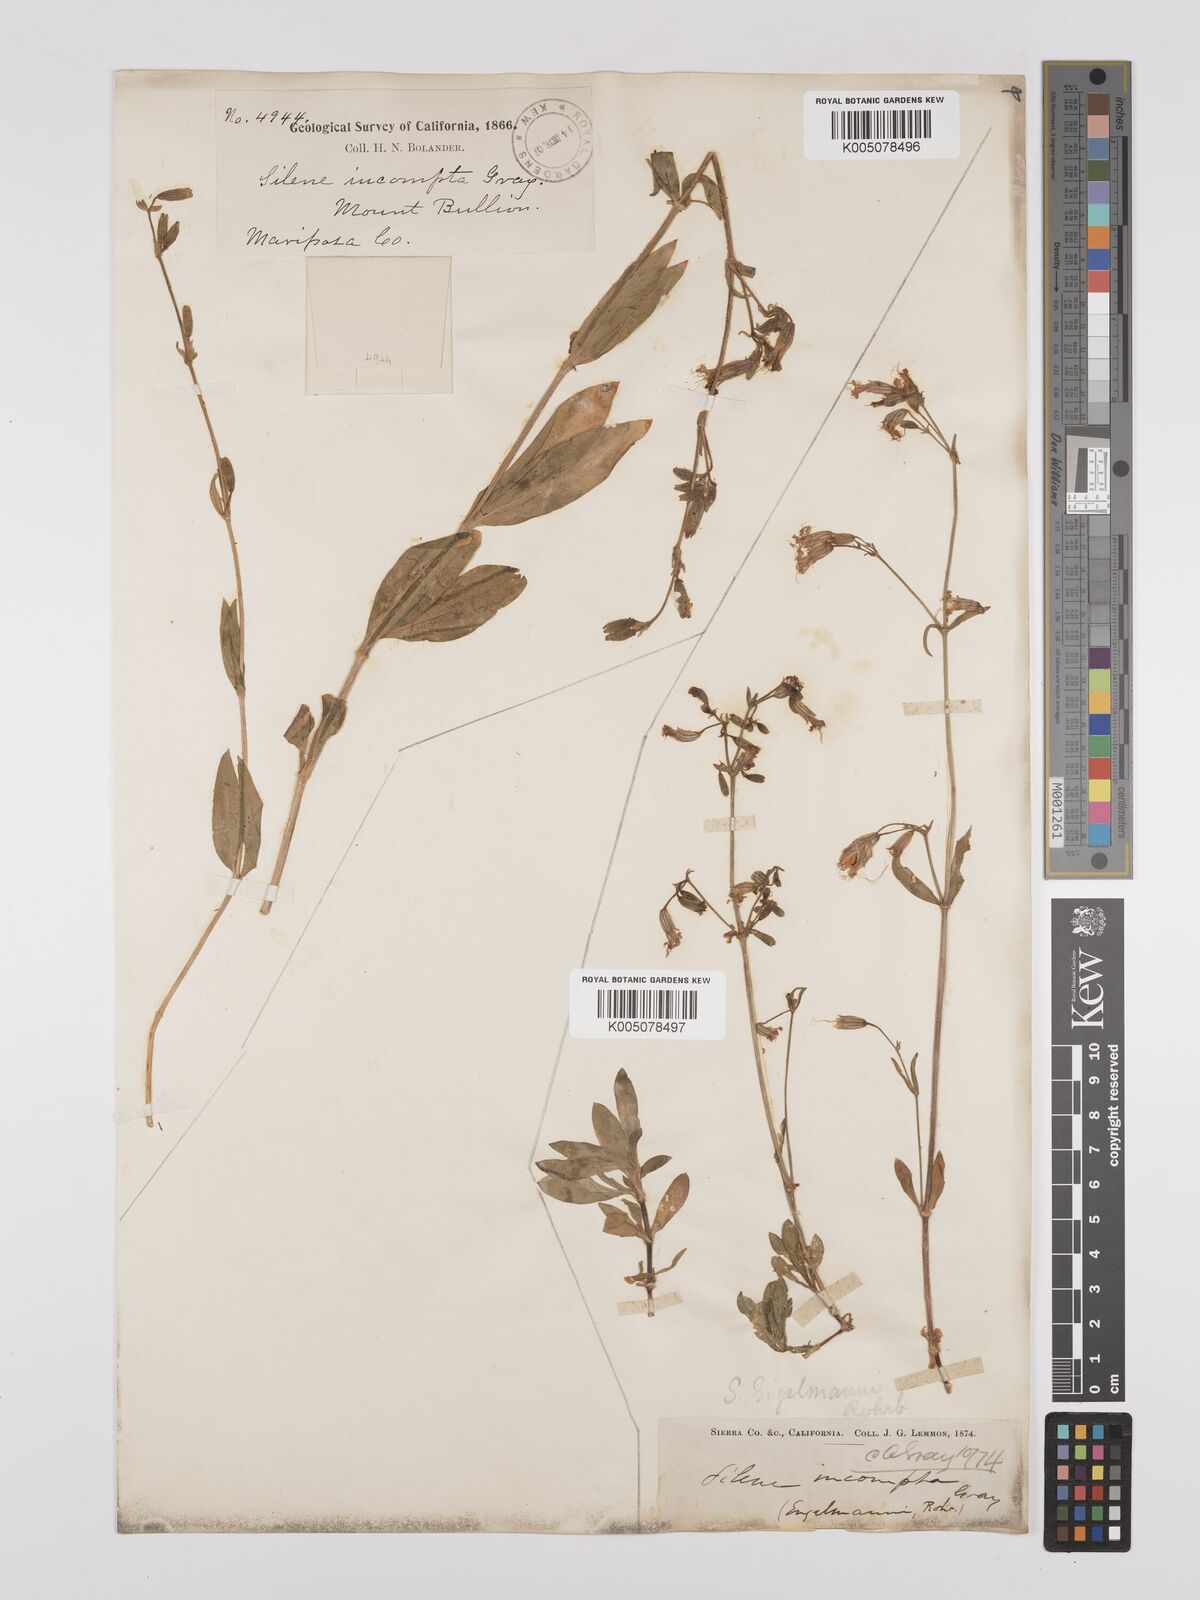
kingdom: Plantae
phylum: Tracheophyta
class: Magnoliopsida
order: Caryophyllales
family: Caryophyllaceae
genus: Silene
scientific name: Silene bridgesii
